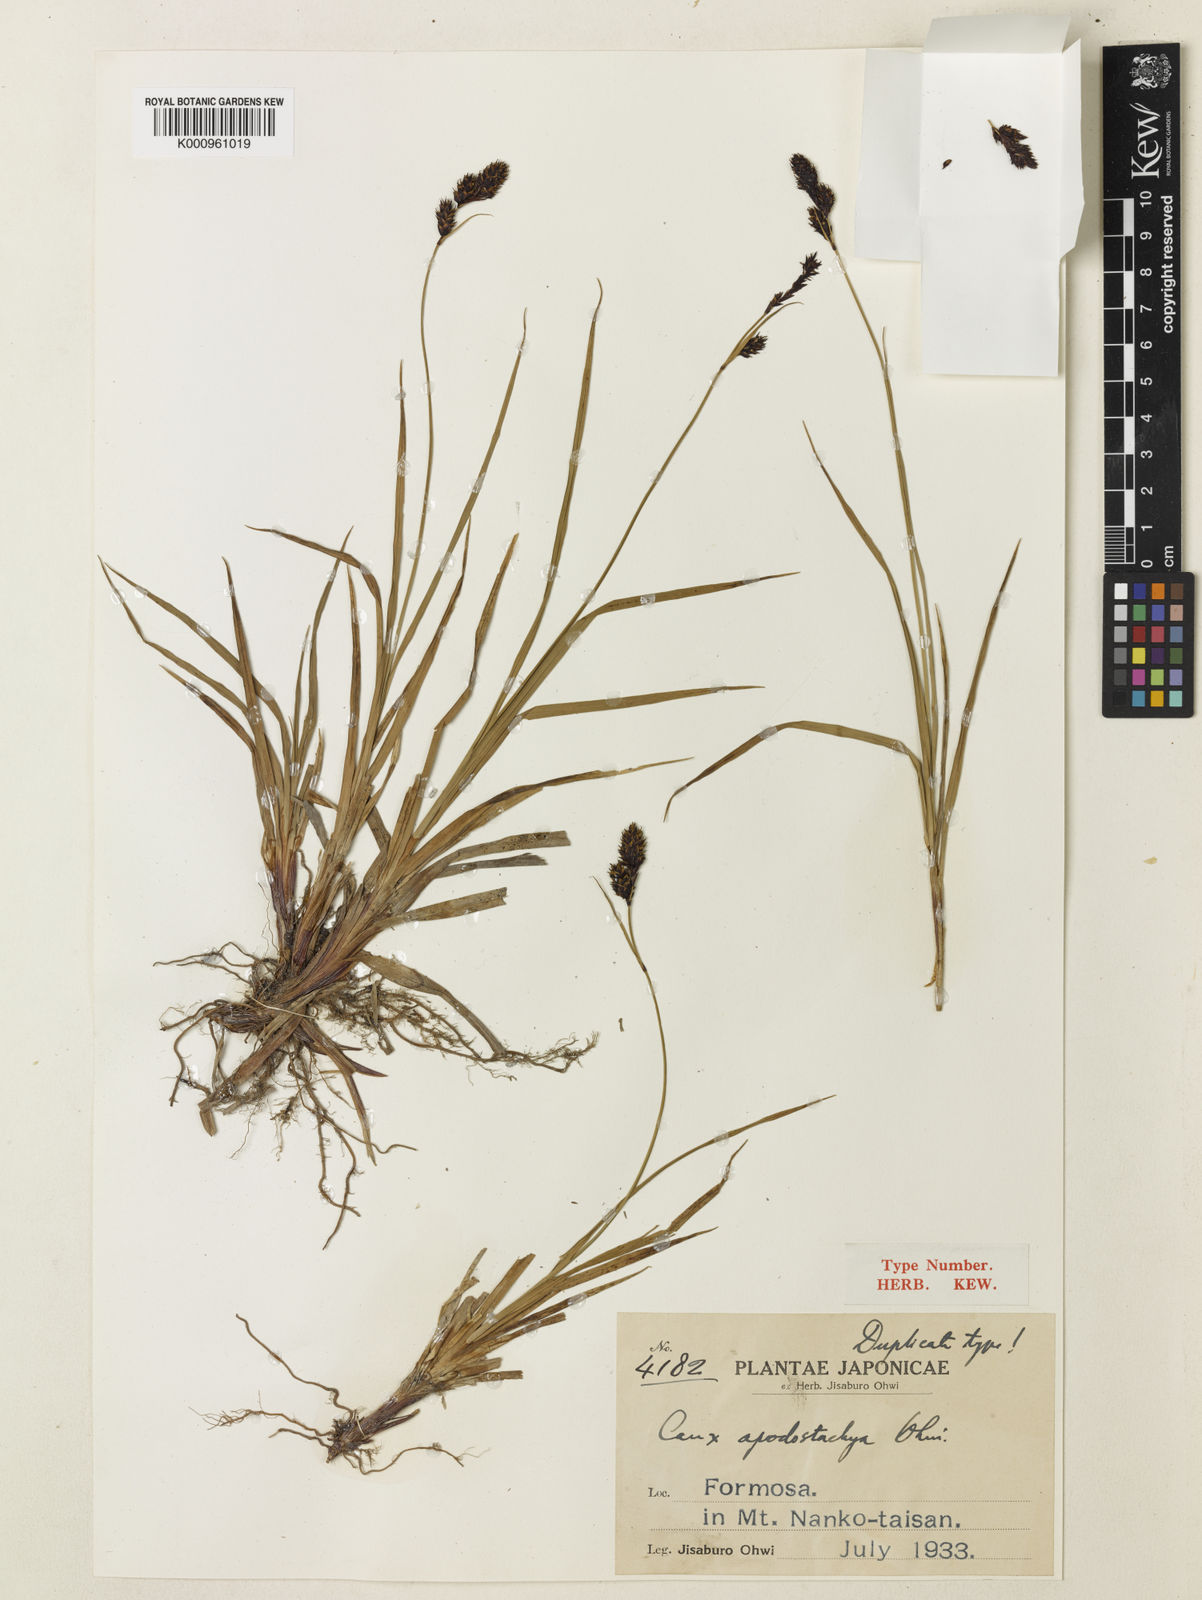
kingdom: Plantae
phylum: Tracheophyta
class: Liliopsida
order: Poales
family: Cyperaceae
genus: Carex
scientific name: Carex atrata
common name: Black alpine sedge
